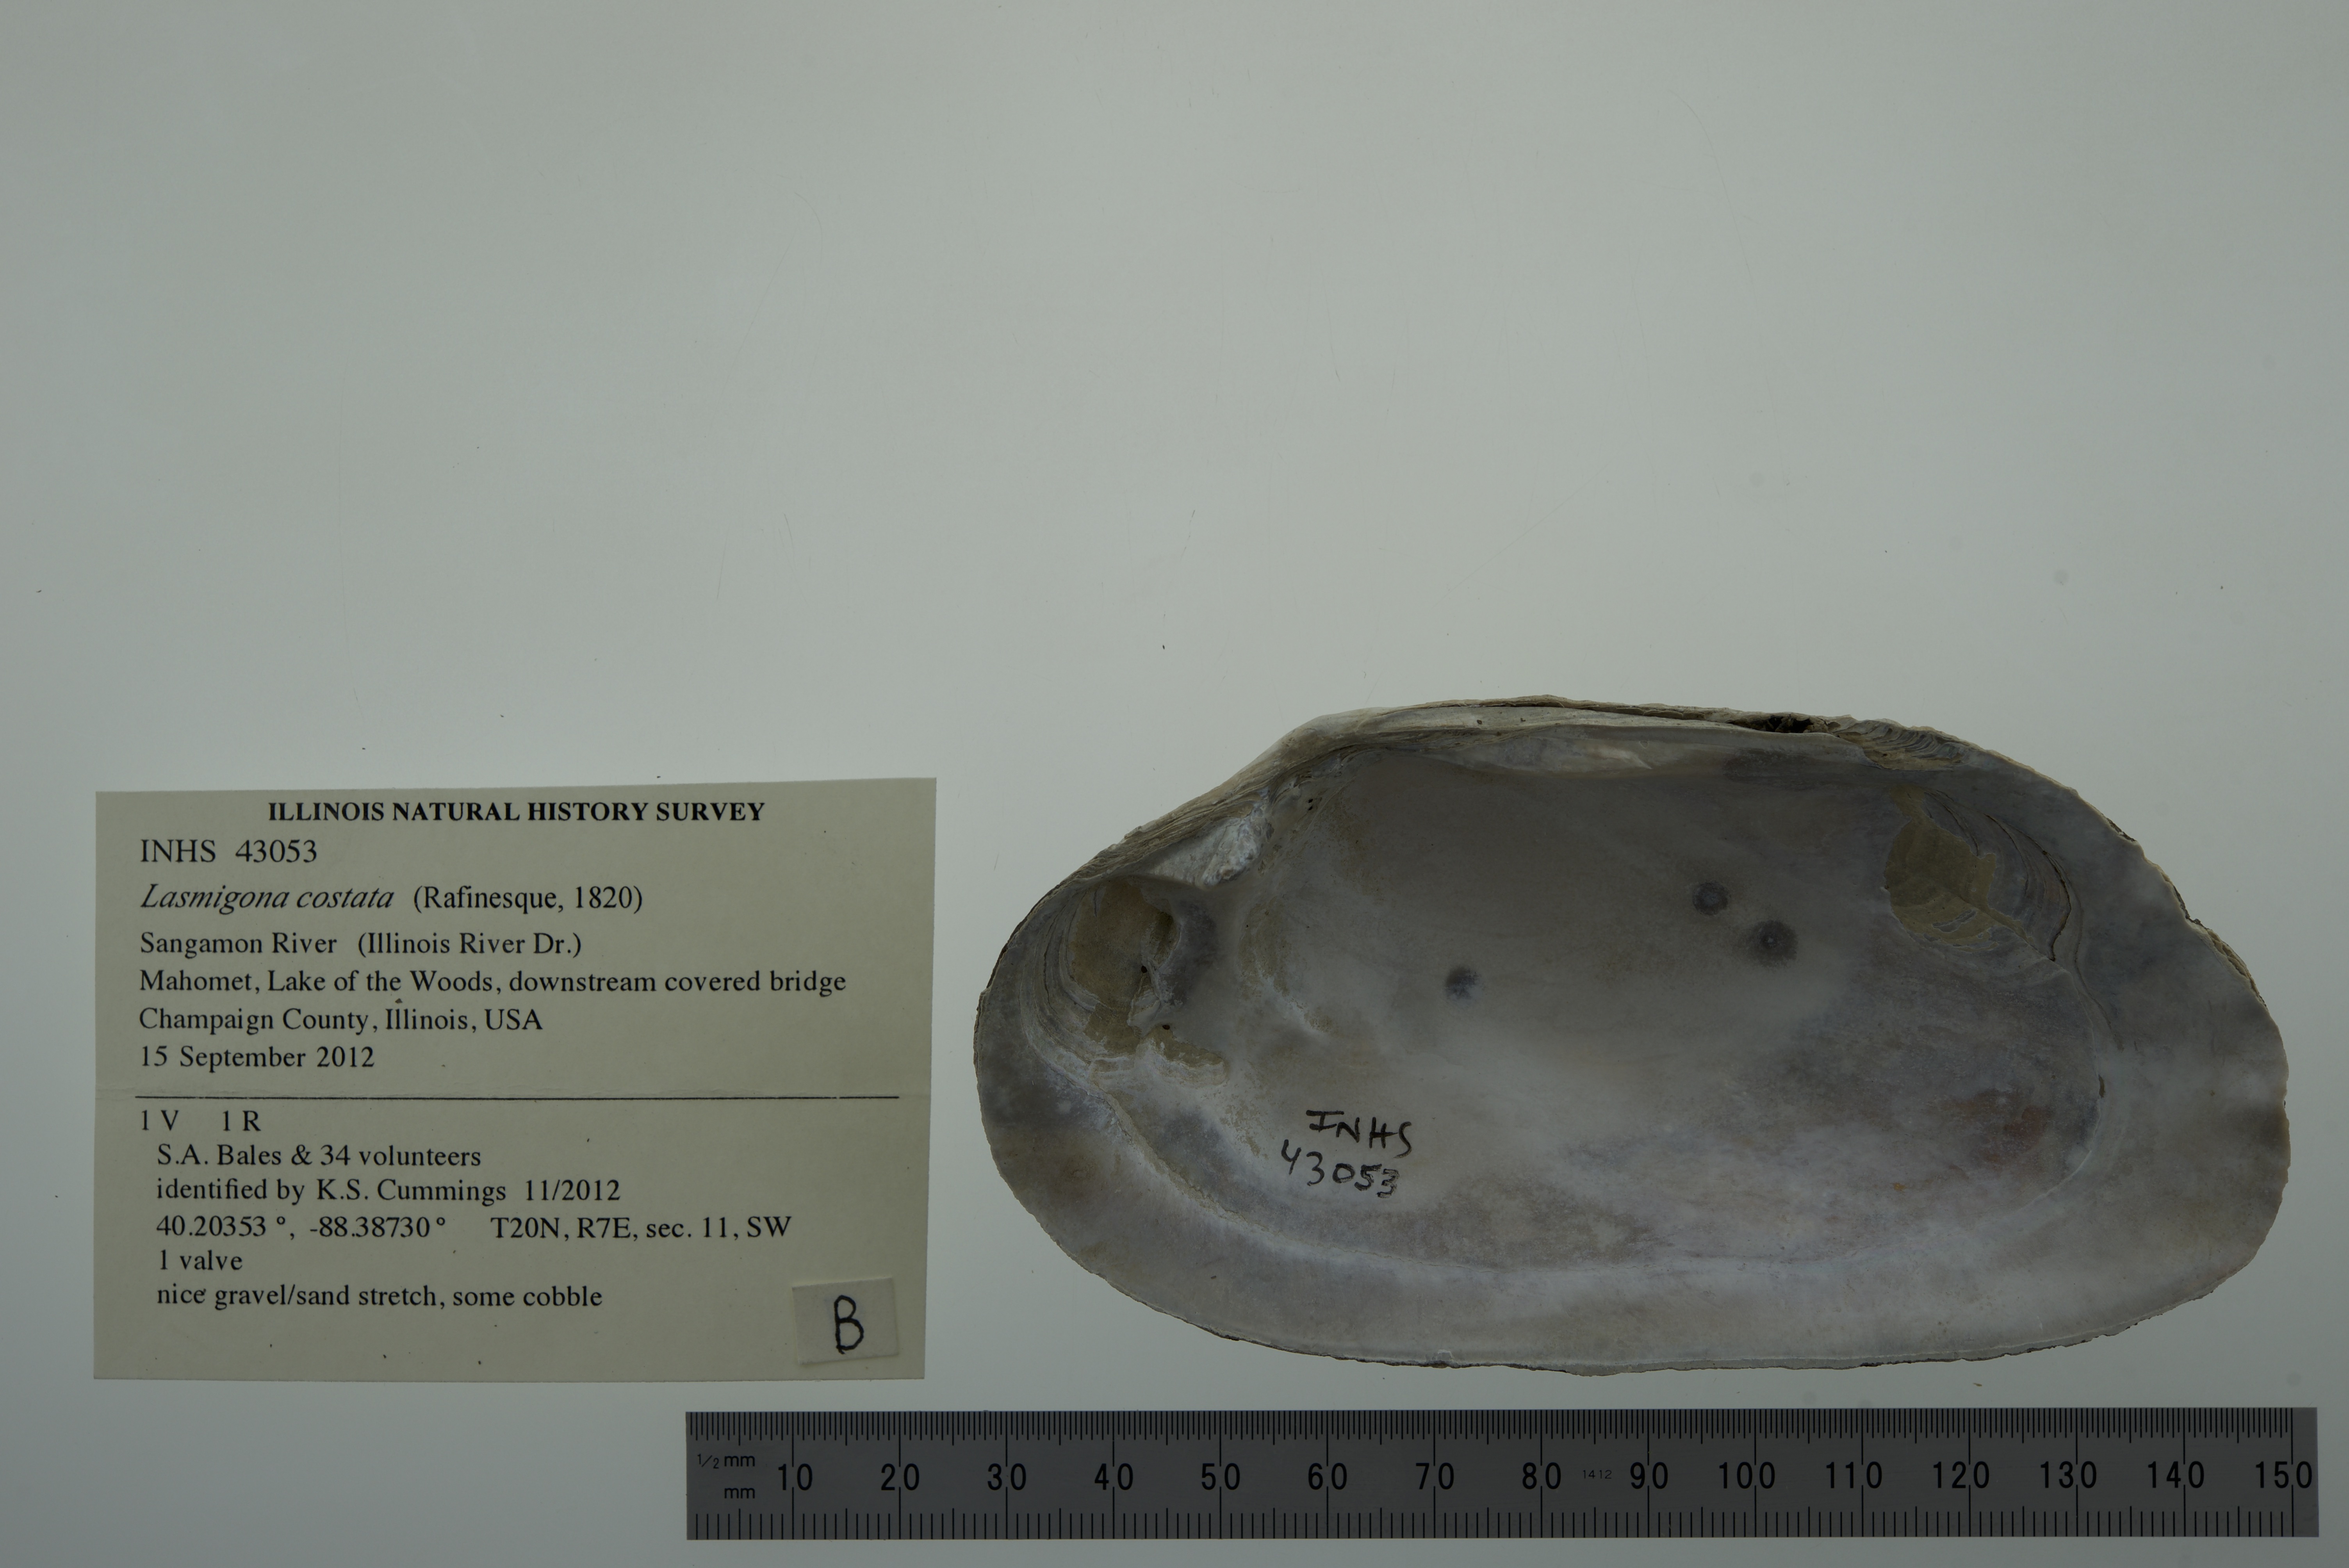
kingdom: Animalia
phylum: Mollusca
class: Bivalvia
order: Unionida
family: Unionidae
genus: Lasmigona
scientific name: Lasmigona costata
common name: Flutedshell
